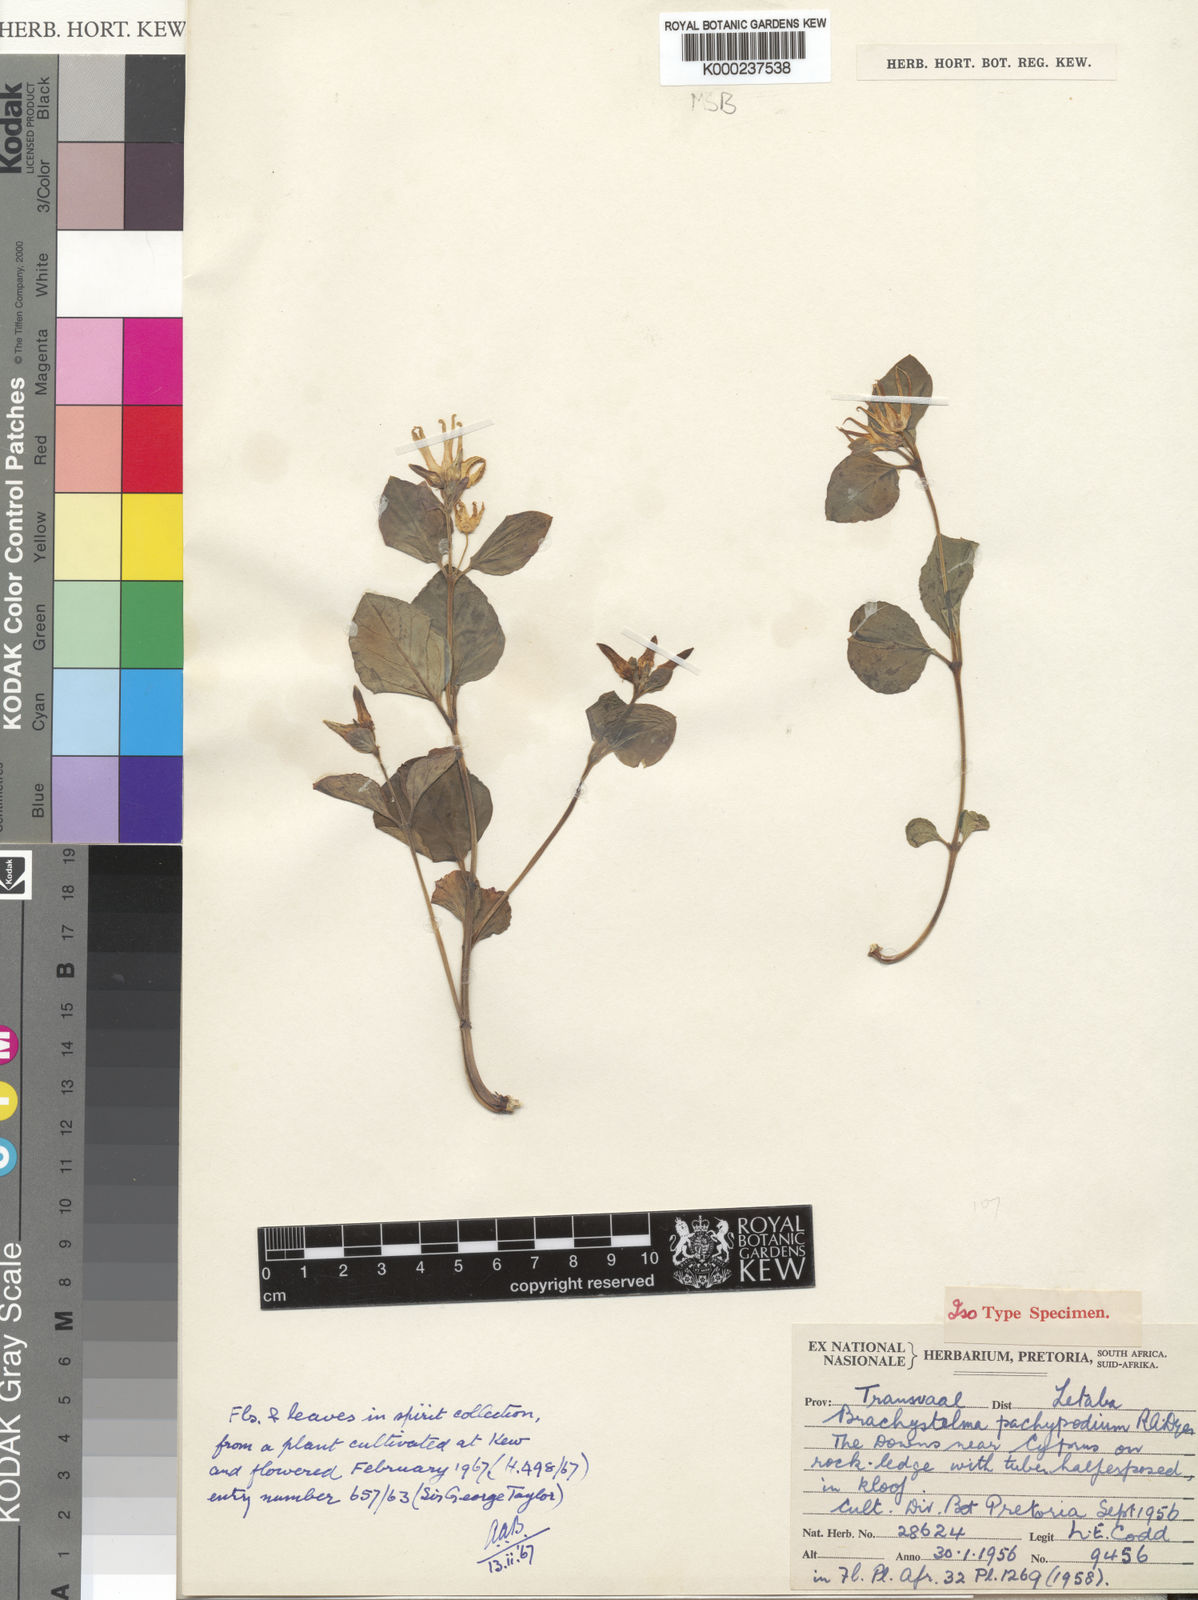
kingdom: Plantae
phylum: Tracheophyta
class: Magnoliopsida
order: Gentianales
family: Apocynaceae
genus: Ceropegia
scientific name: Ceropegia pachypodium
